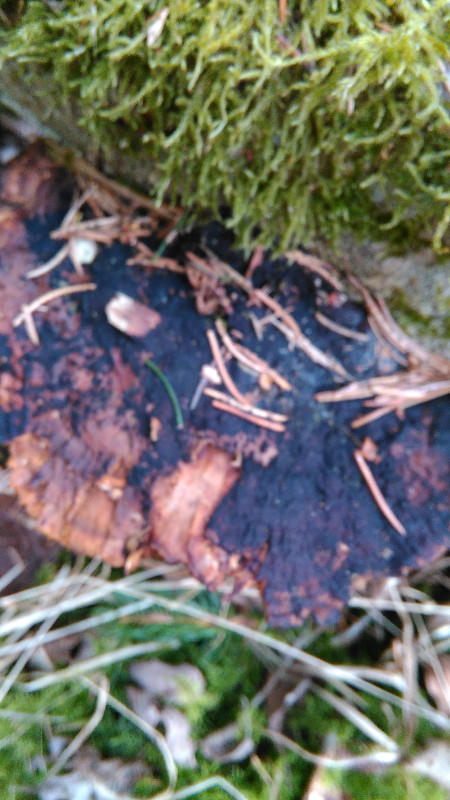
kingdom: Fungi
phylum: Basidiomycota
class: Agaricomycetes
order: Polyporales
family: Polyporaceae
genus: Daedaleopsis
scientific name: Daedaleopsis confragosa
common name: rødmende læderporesvamp
